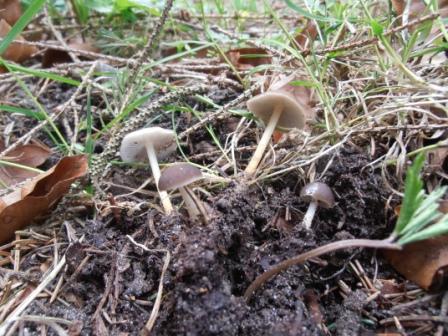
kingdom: Fungi
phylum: Basidiomycota
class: Agaricomycetes
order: Agaricales
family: Physalacriaceae
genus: Strobilurus
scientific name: Strobilurus esculentus
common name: gran-koglehat
